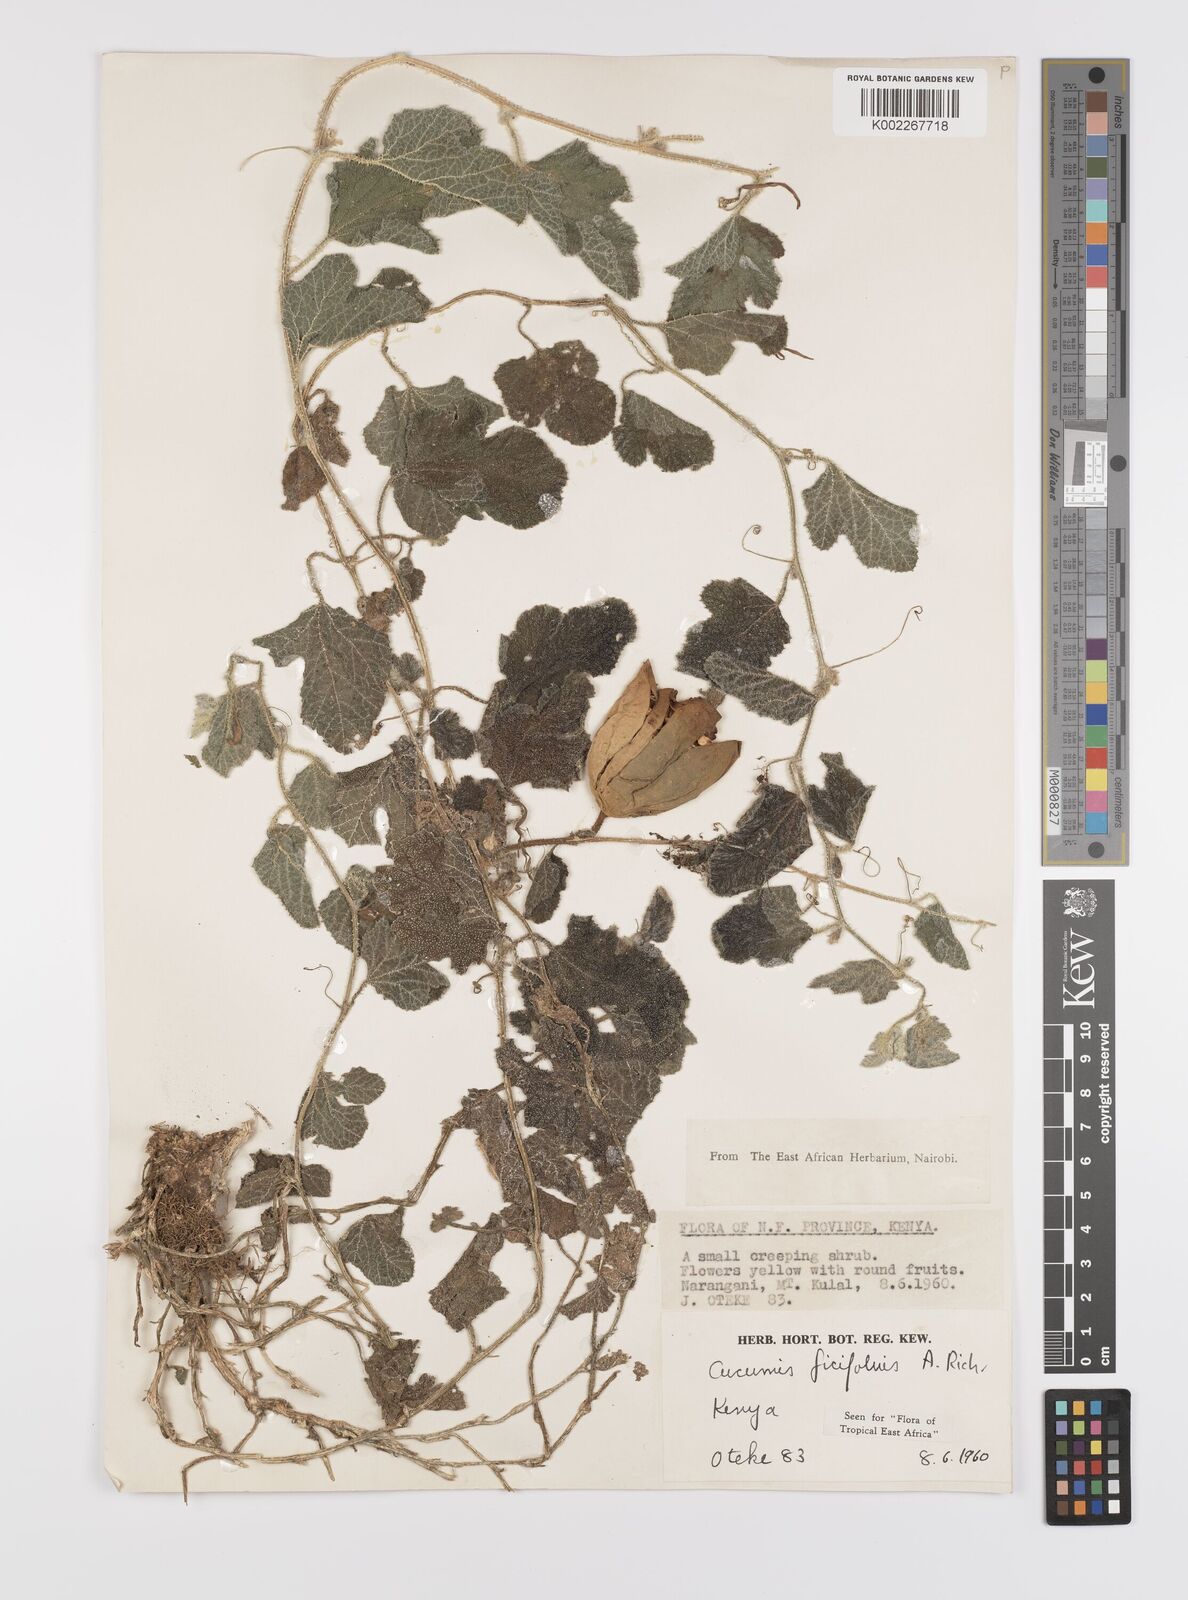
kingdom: Plantae
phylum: Tracheophyta
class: Magnoliopsida
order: Cucurbitales
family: Cucurbitaceae
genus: Cucumis
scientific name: Cucumis ficifolius
